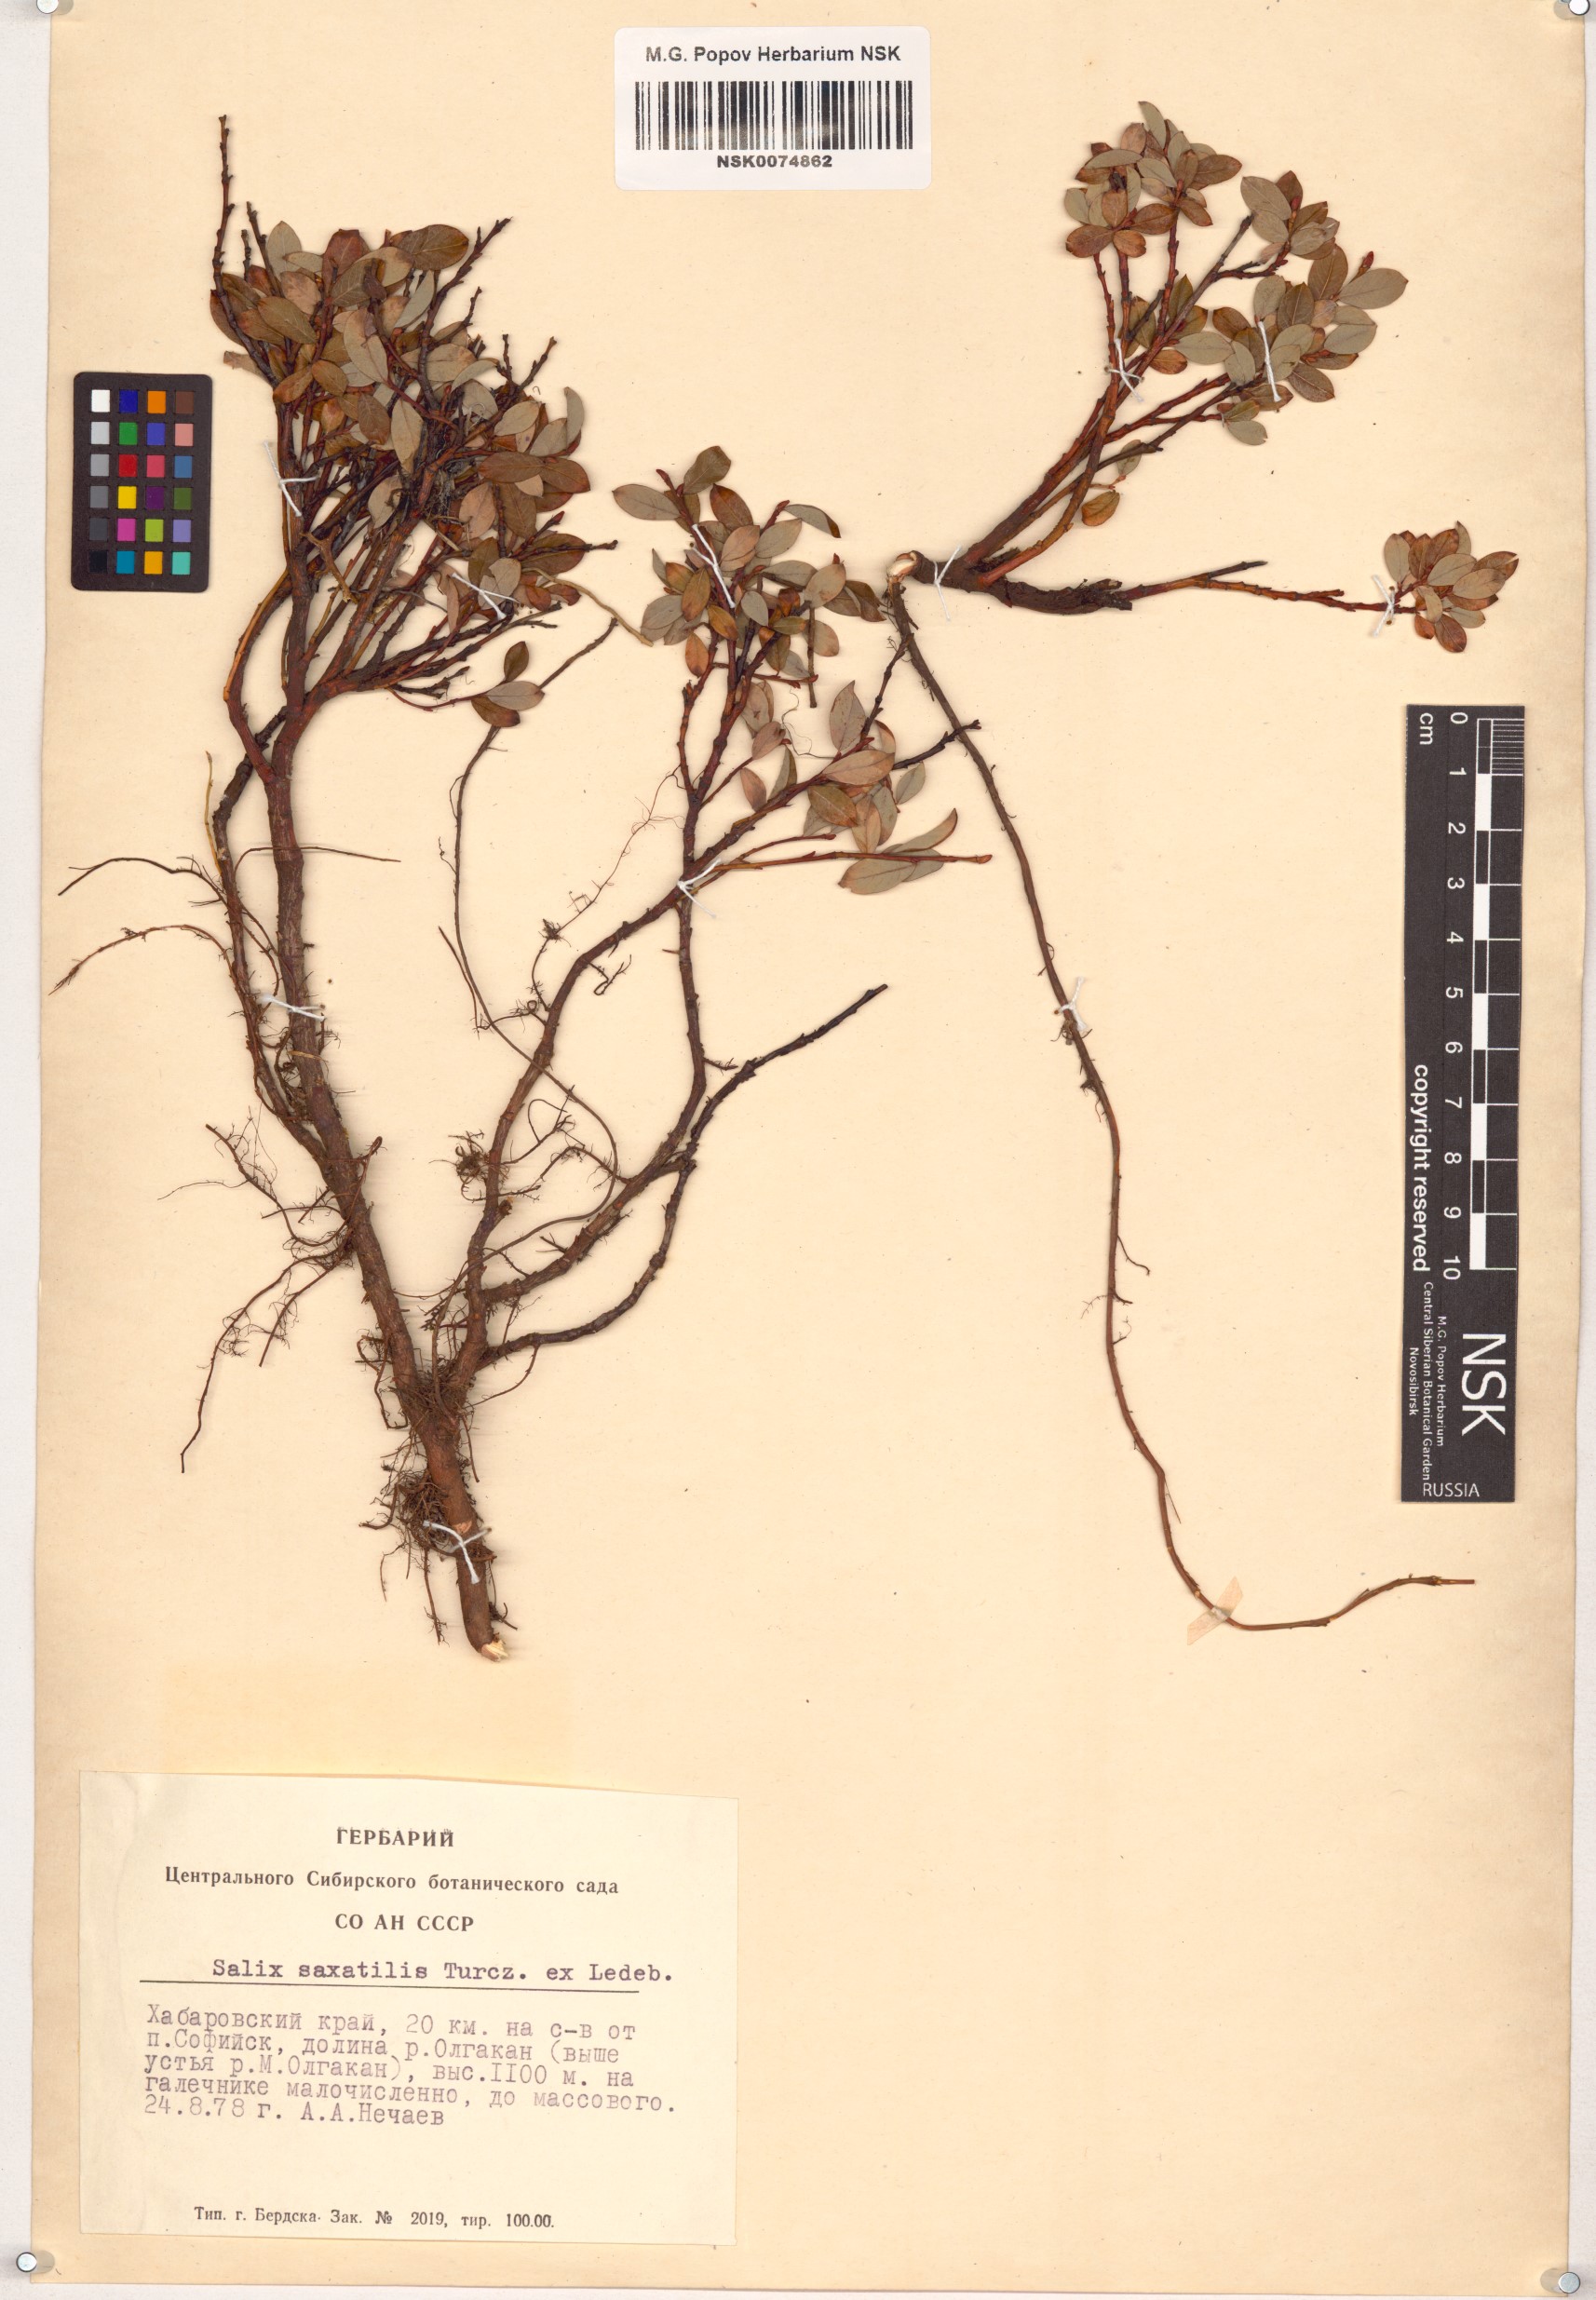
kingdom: Plantae
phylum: Tracheophyta
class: Magnoliopsida
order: Malpighiales
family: Salicaceae
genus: Salix
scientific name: Salix saxatilis
